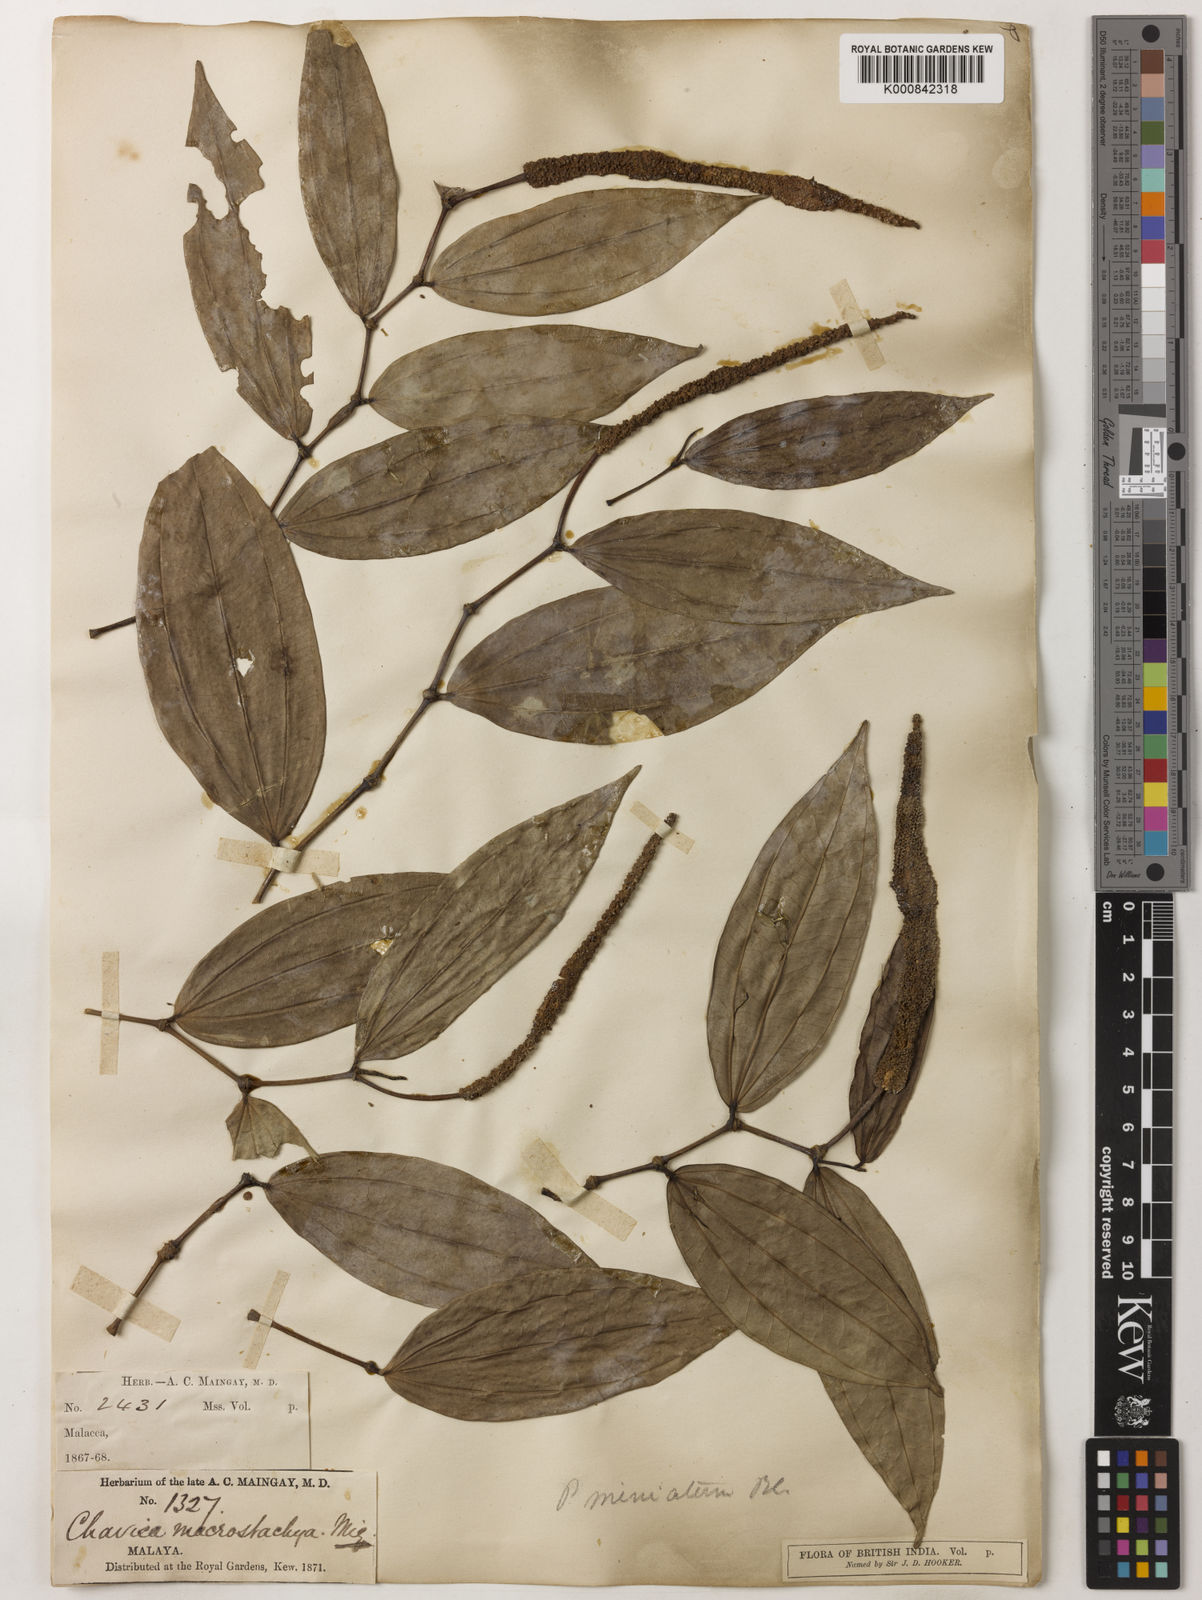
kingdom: Plantae
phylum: Tracheophyta
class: Magnoliopsida
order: Piperales
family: Piperaceae
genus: Piper
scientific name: Piper macropiper
